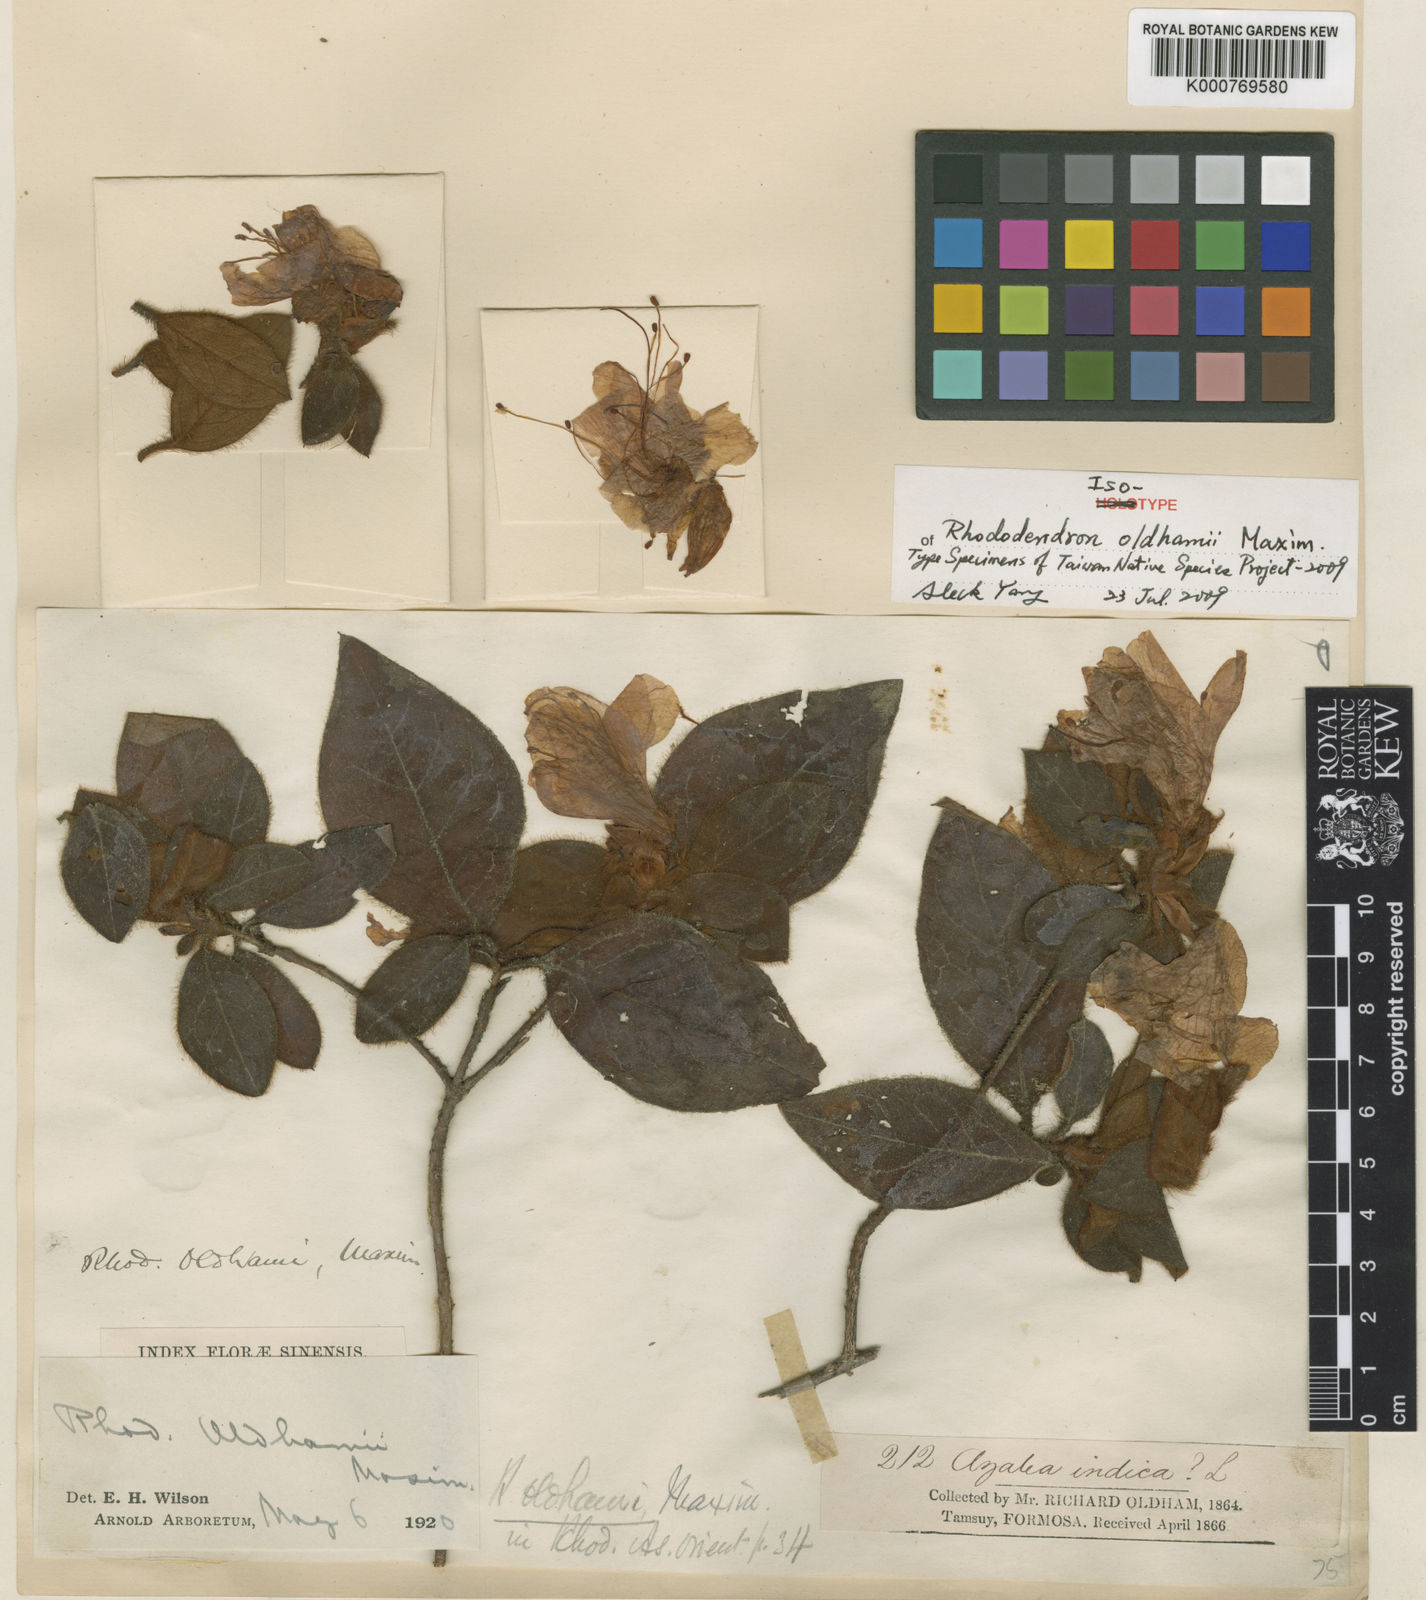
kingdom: Plantae
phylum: Tracheophyta
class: Magnoliopsida
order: Ericales
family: Ericaceae
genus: Rhododendron
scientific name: Rhododendron oldhamii
